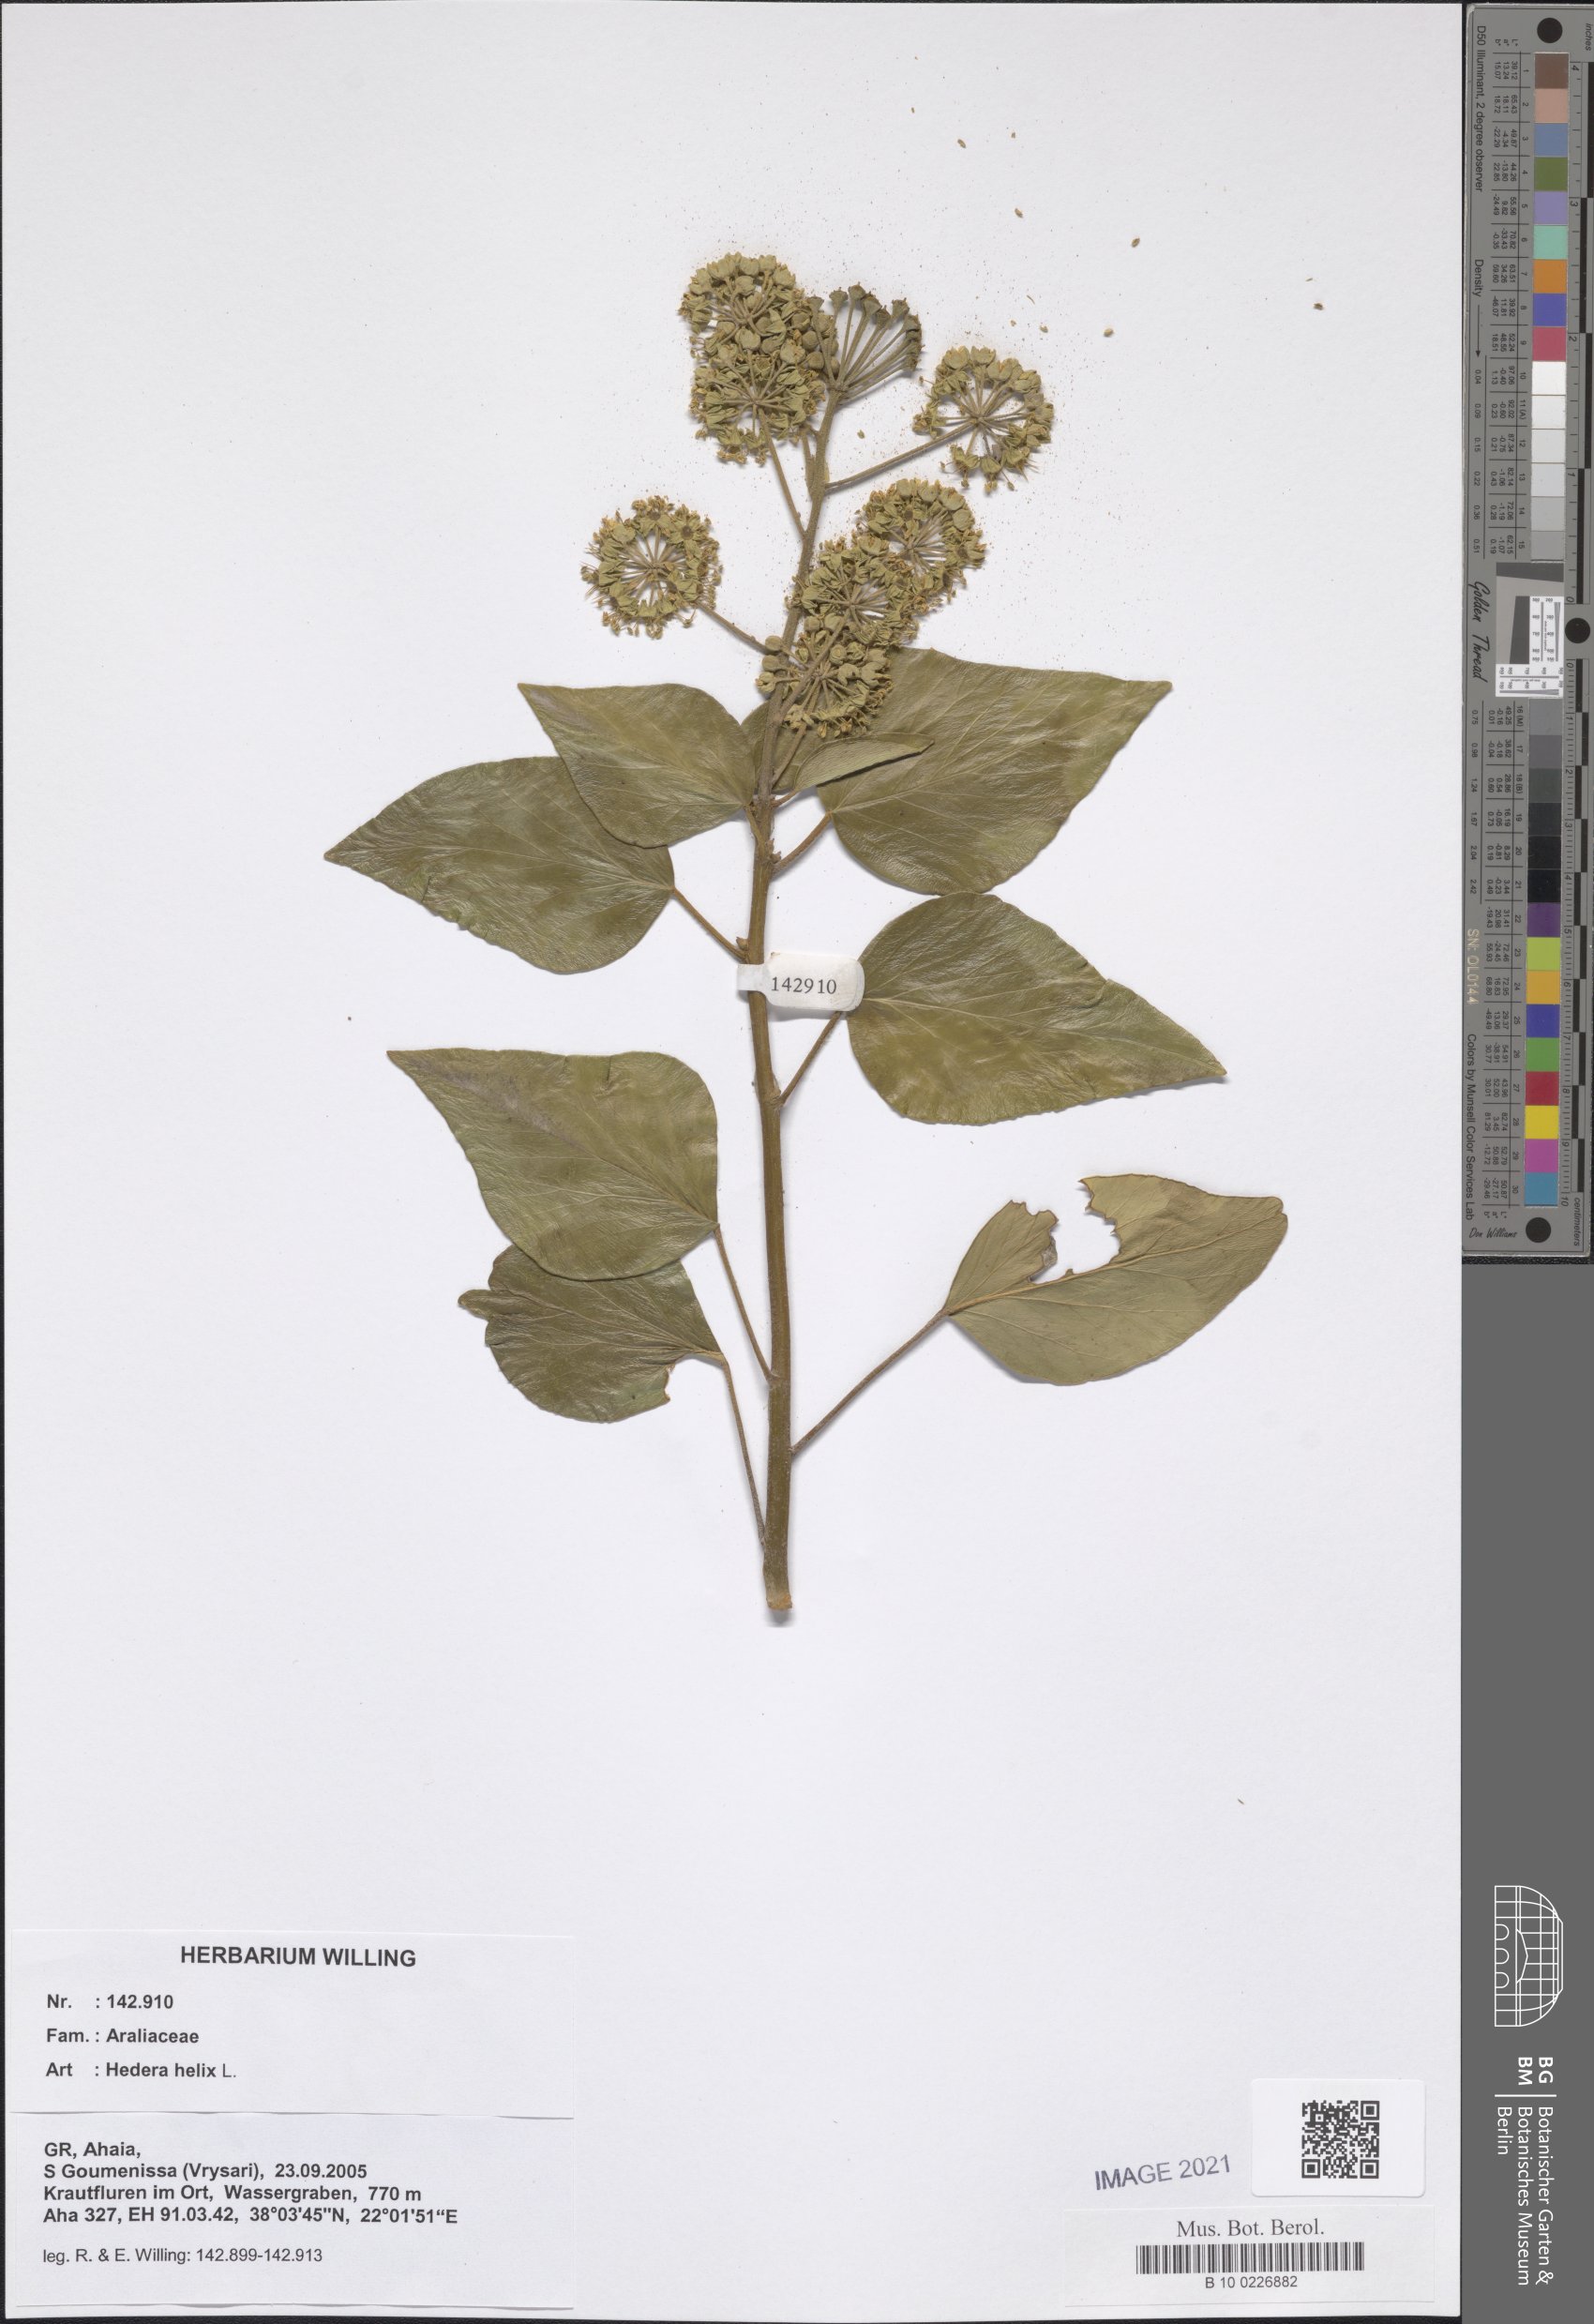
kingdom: Plantae
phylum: Tracheophyta
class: Magnoliopsida
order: Apiales
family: Araliaceae
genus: Hedera
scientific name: Hedera helix
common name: Ivy
